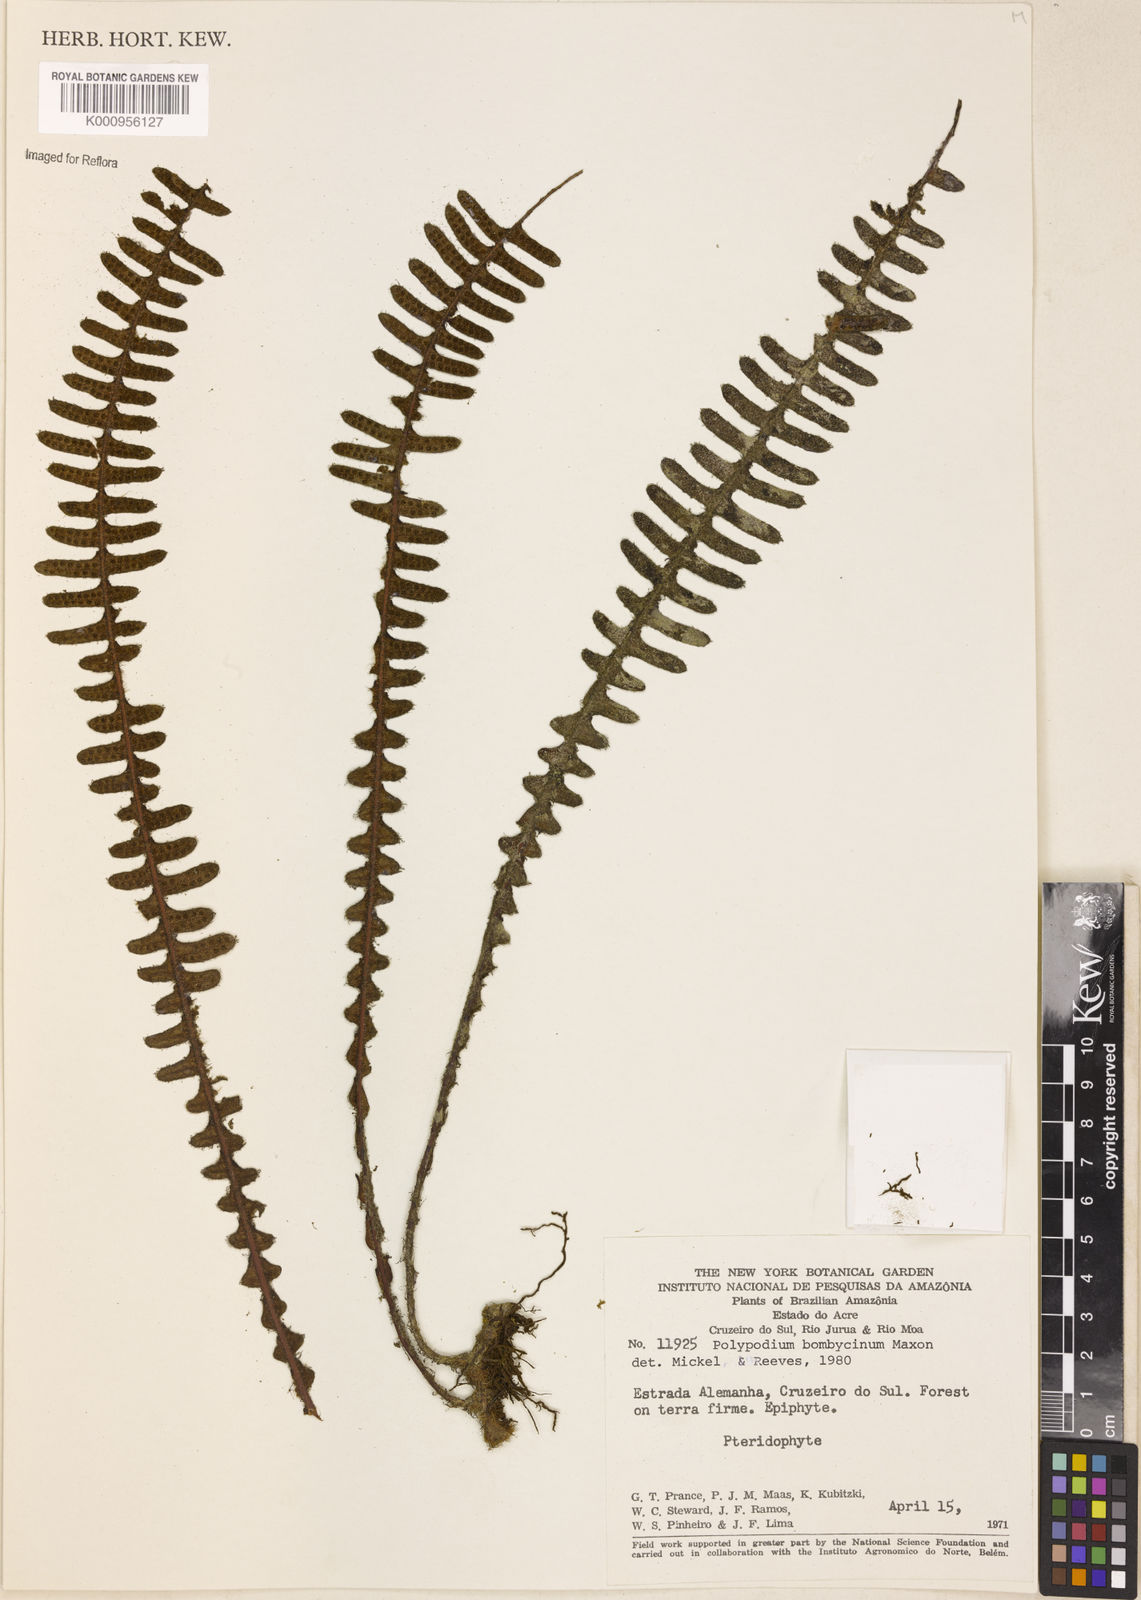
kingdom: Plantae
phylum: Tracheophyta
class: Polypodiopsida
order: Polypodiales
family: Polypodiaceae
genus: Pleopeltis
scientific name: Pleopeltis bombycina
